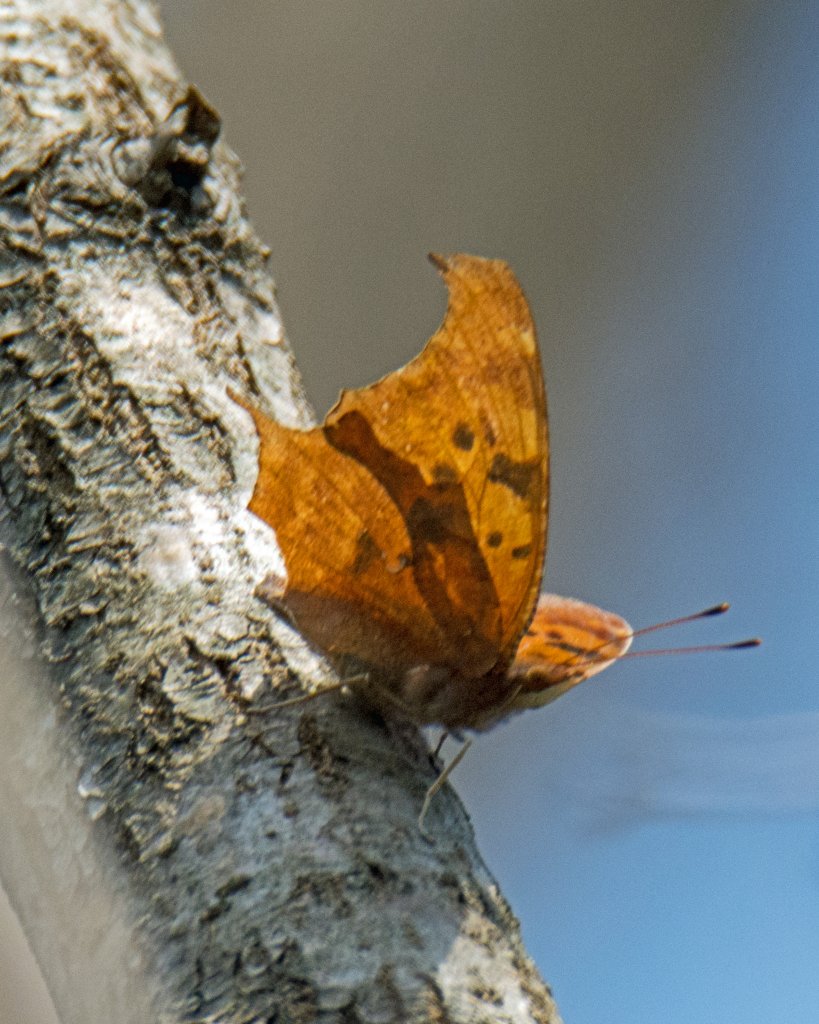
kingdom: Animalia
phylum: Arthropoda
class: Insecta
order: Lepidoptera
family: Nymphalidae
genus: Polygonia
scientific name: Polygonia interrogationis
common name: Question Mark
